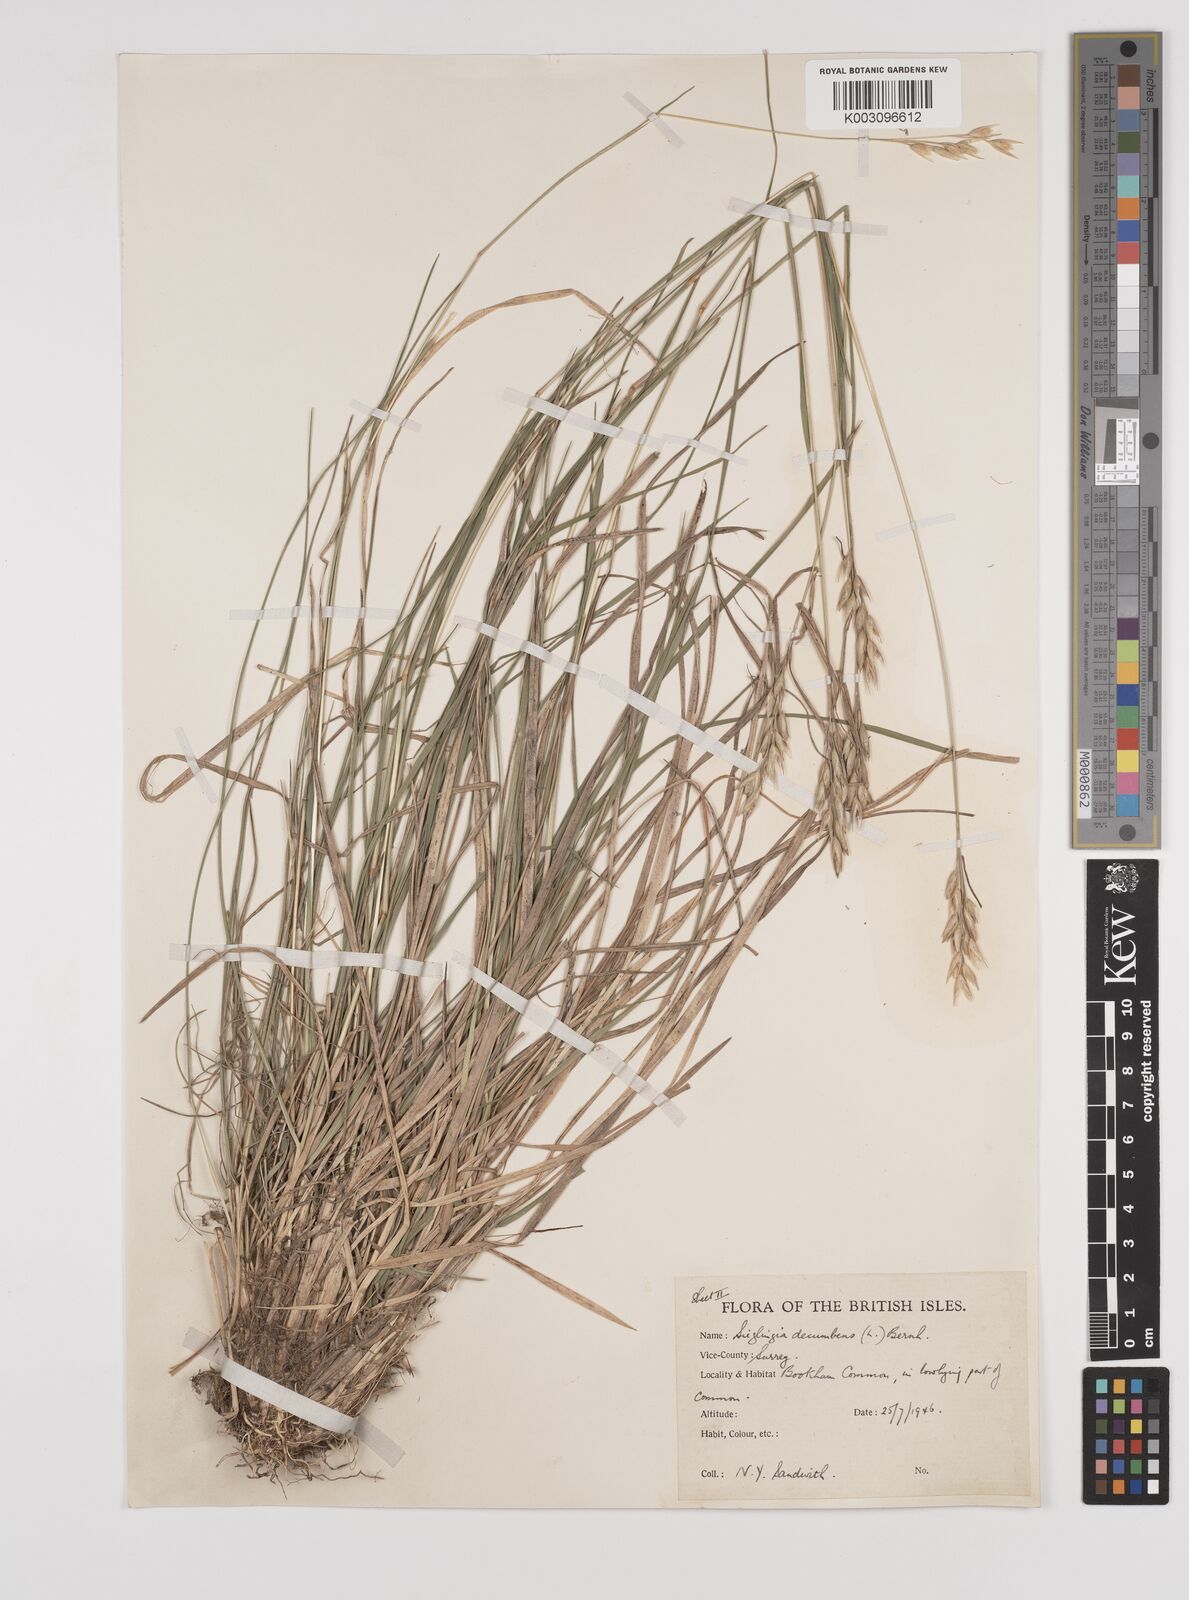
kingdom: Plantae
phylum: Tracheophyta
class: Liliopsida
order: Poales
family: Poaceae
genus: Danthonia
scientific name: Danthonia decumbens
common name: Common heathgrass
